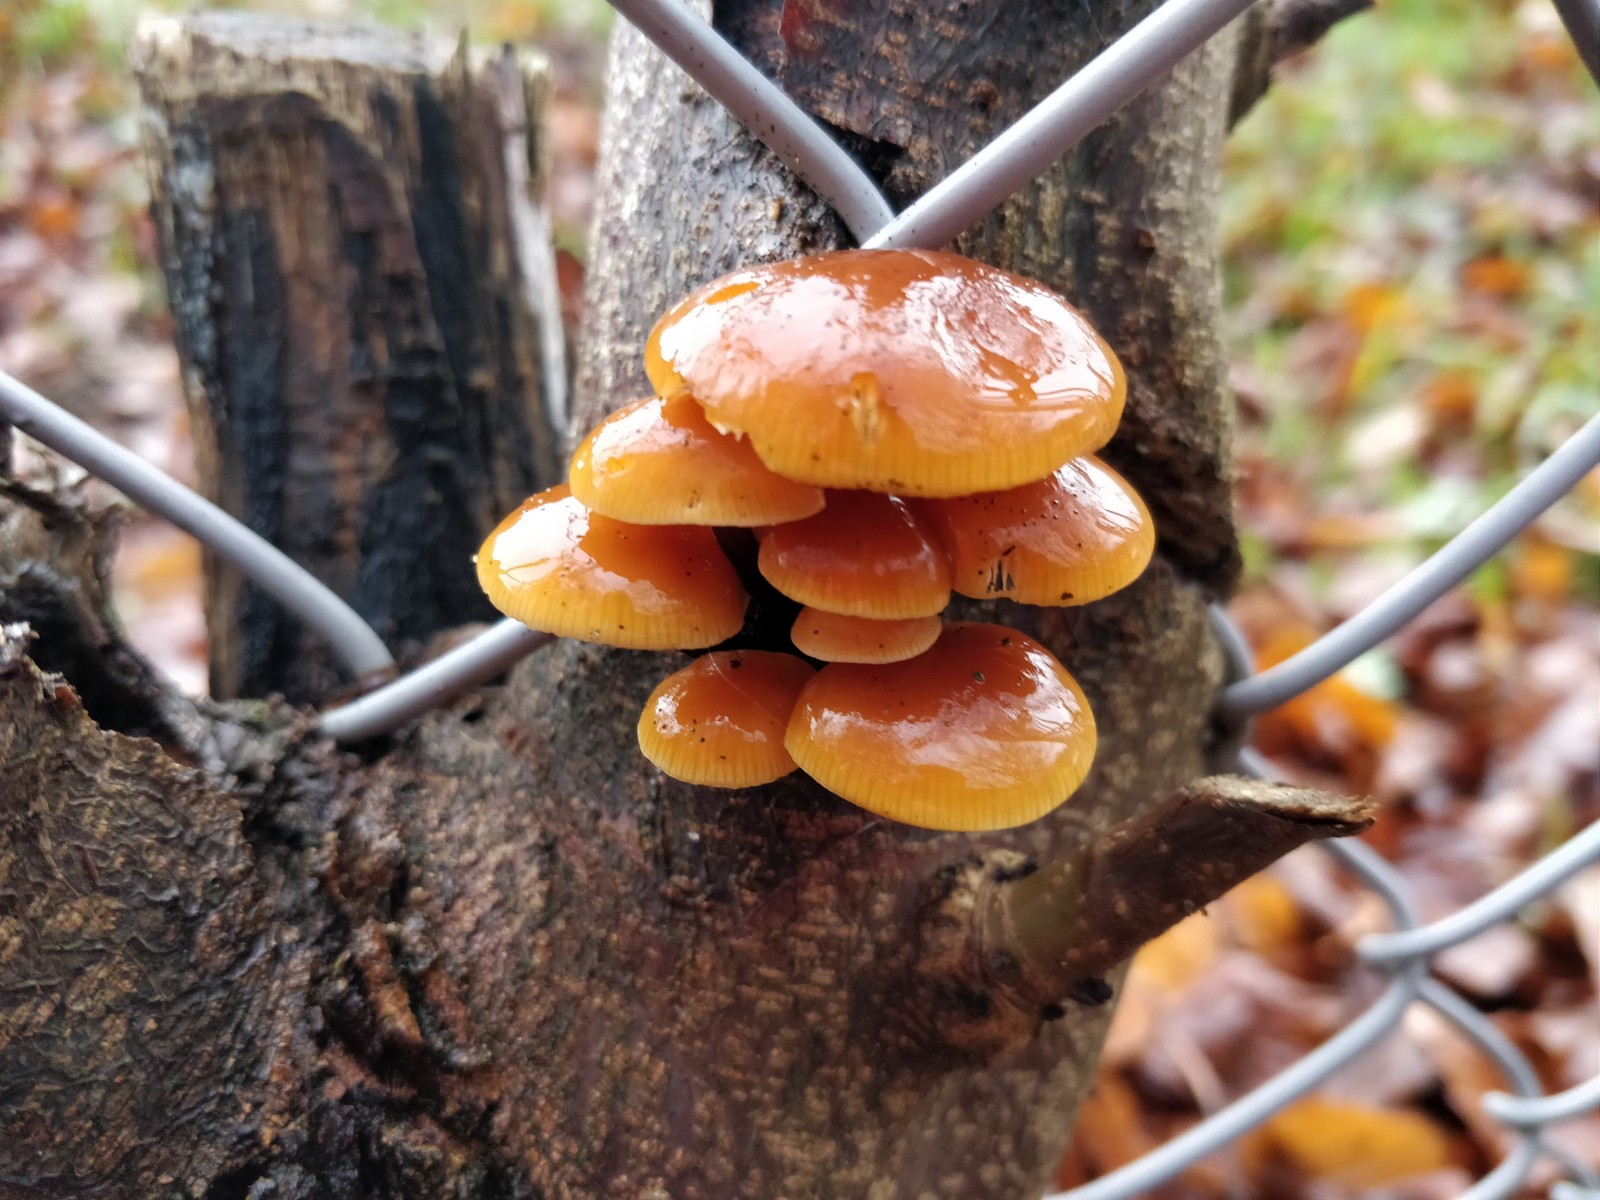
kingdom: Fungi
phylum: Basidiomycota
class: Agaricomycetes
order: Agaricales
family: Physalacriaceae
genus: Flammulina
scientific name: Flammulina velutipes
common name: gul fløjlsfod
